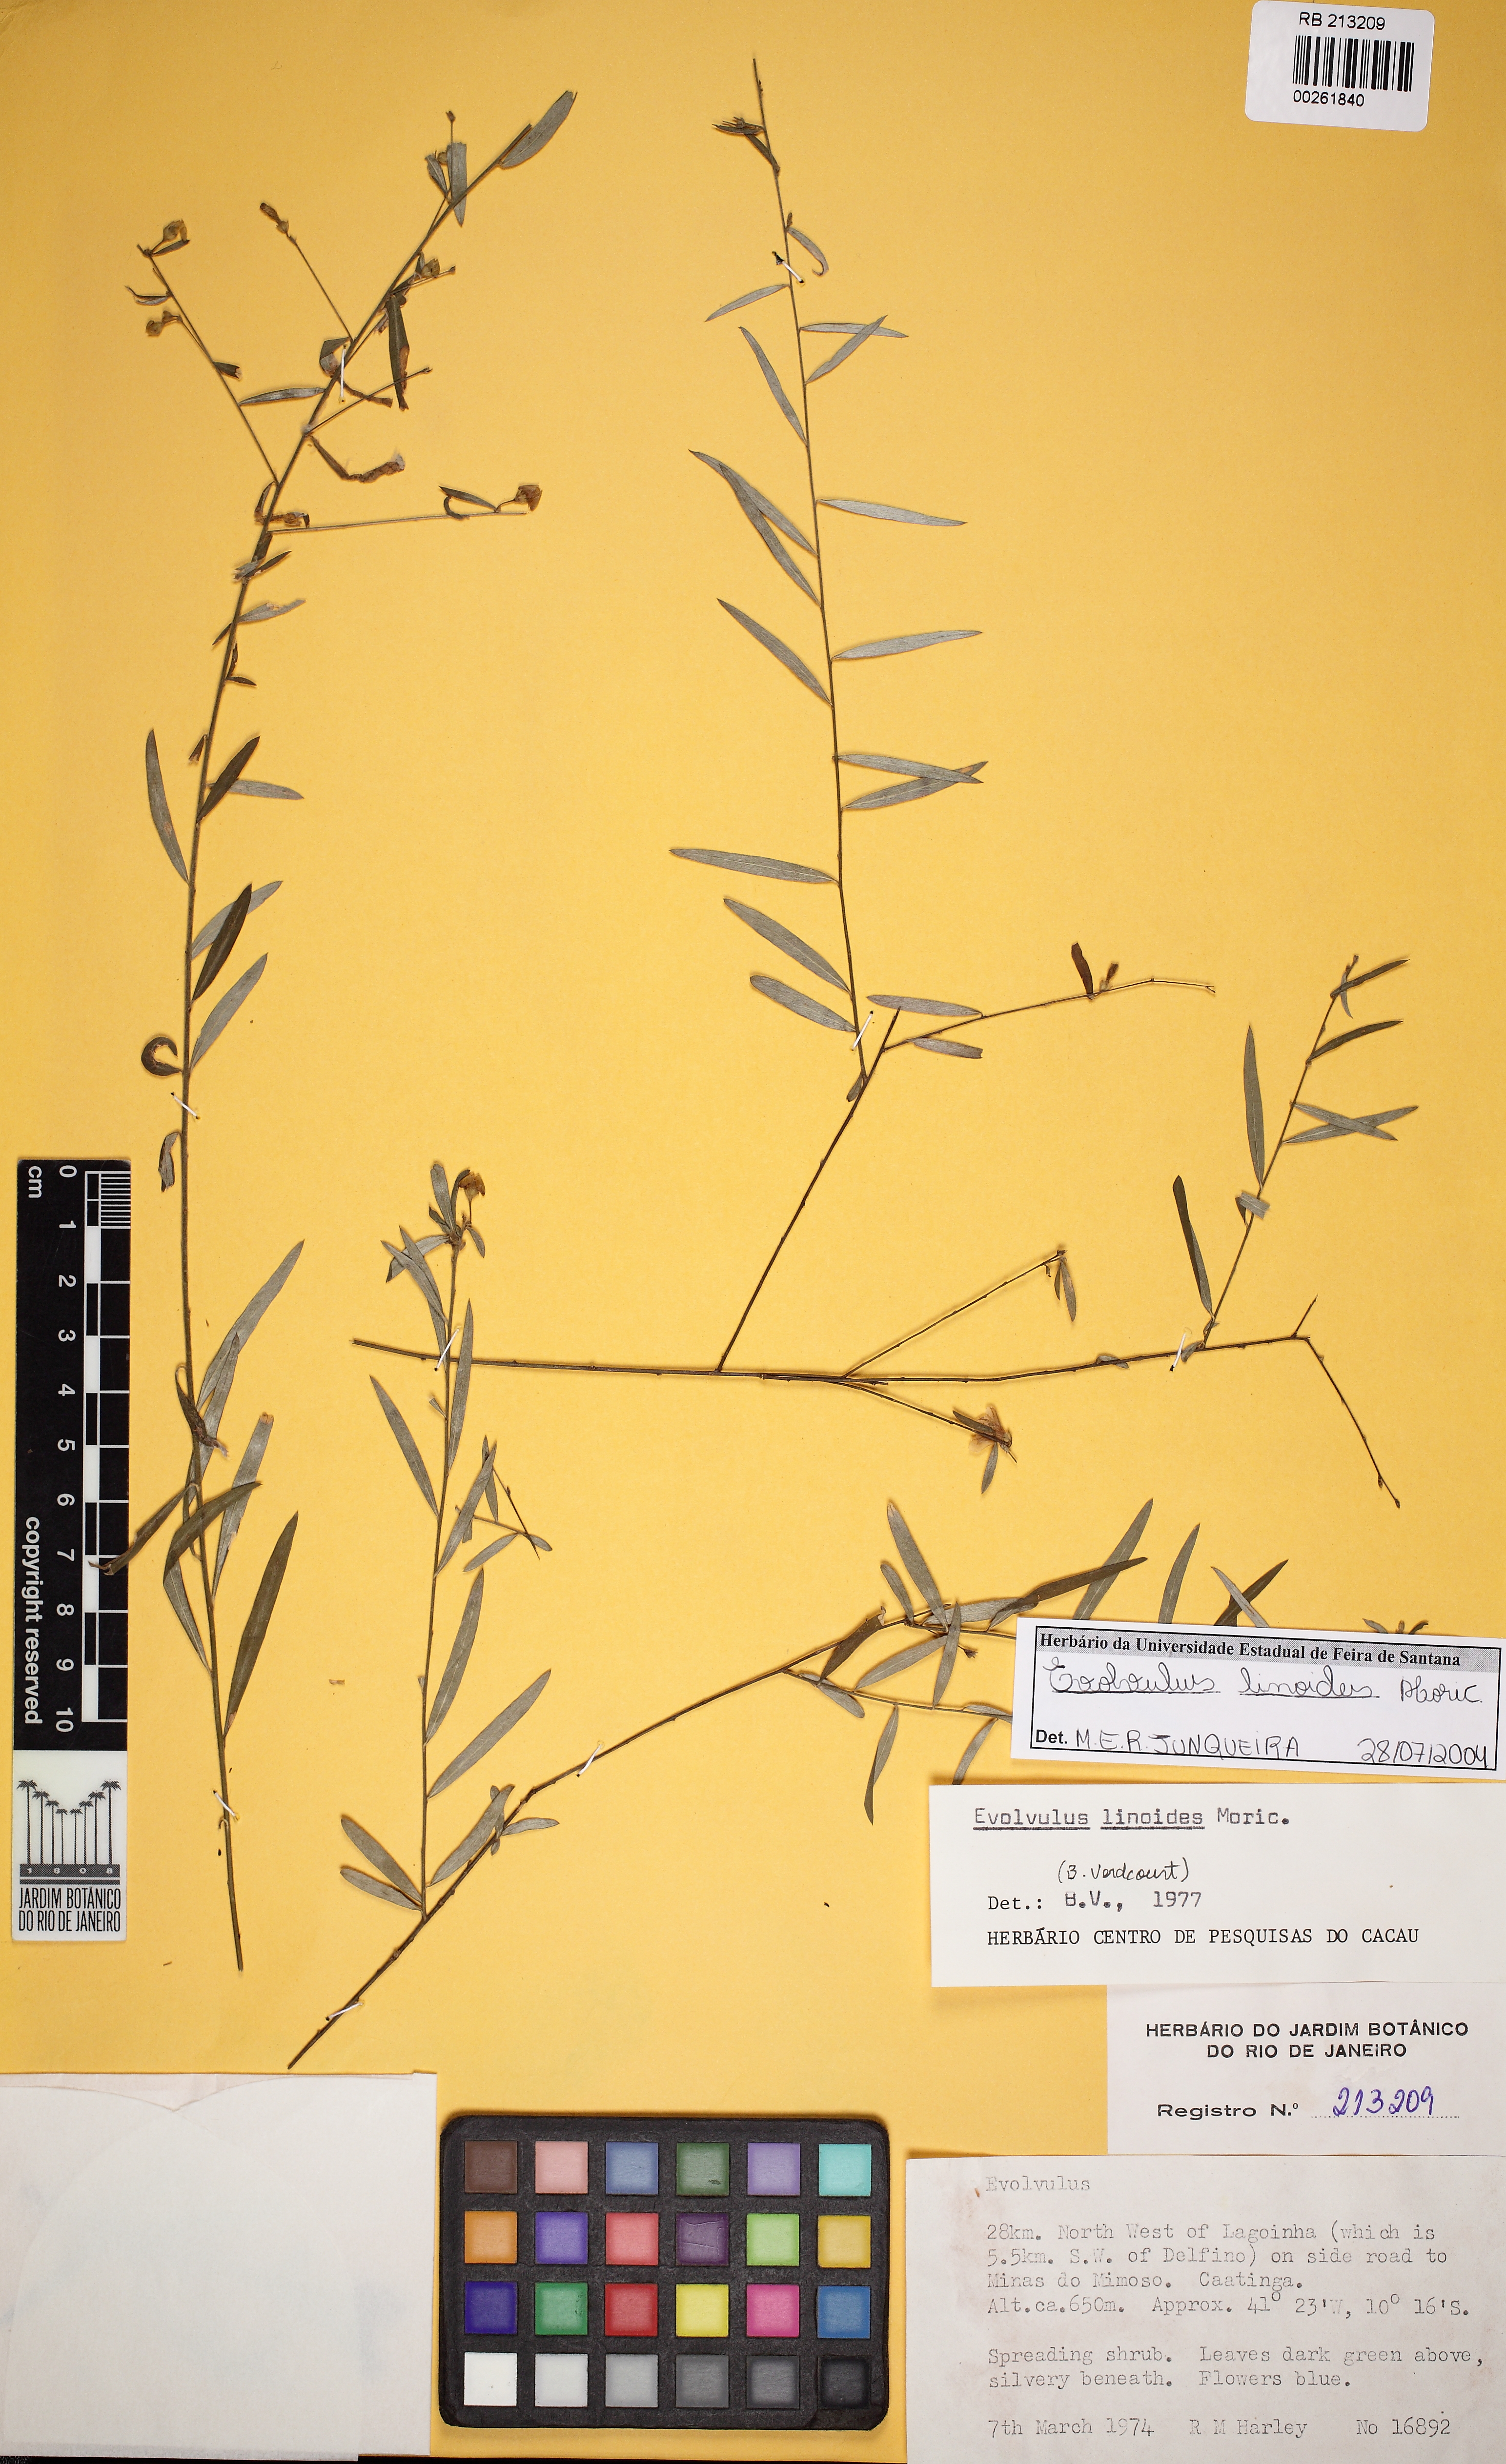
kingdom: Plantae
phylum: Tracheophyta
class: Magnoliopsida
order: Solanales
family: Convolvulaceae
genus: Evolvulus
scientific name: Evolvulus linoides
